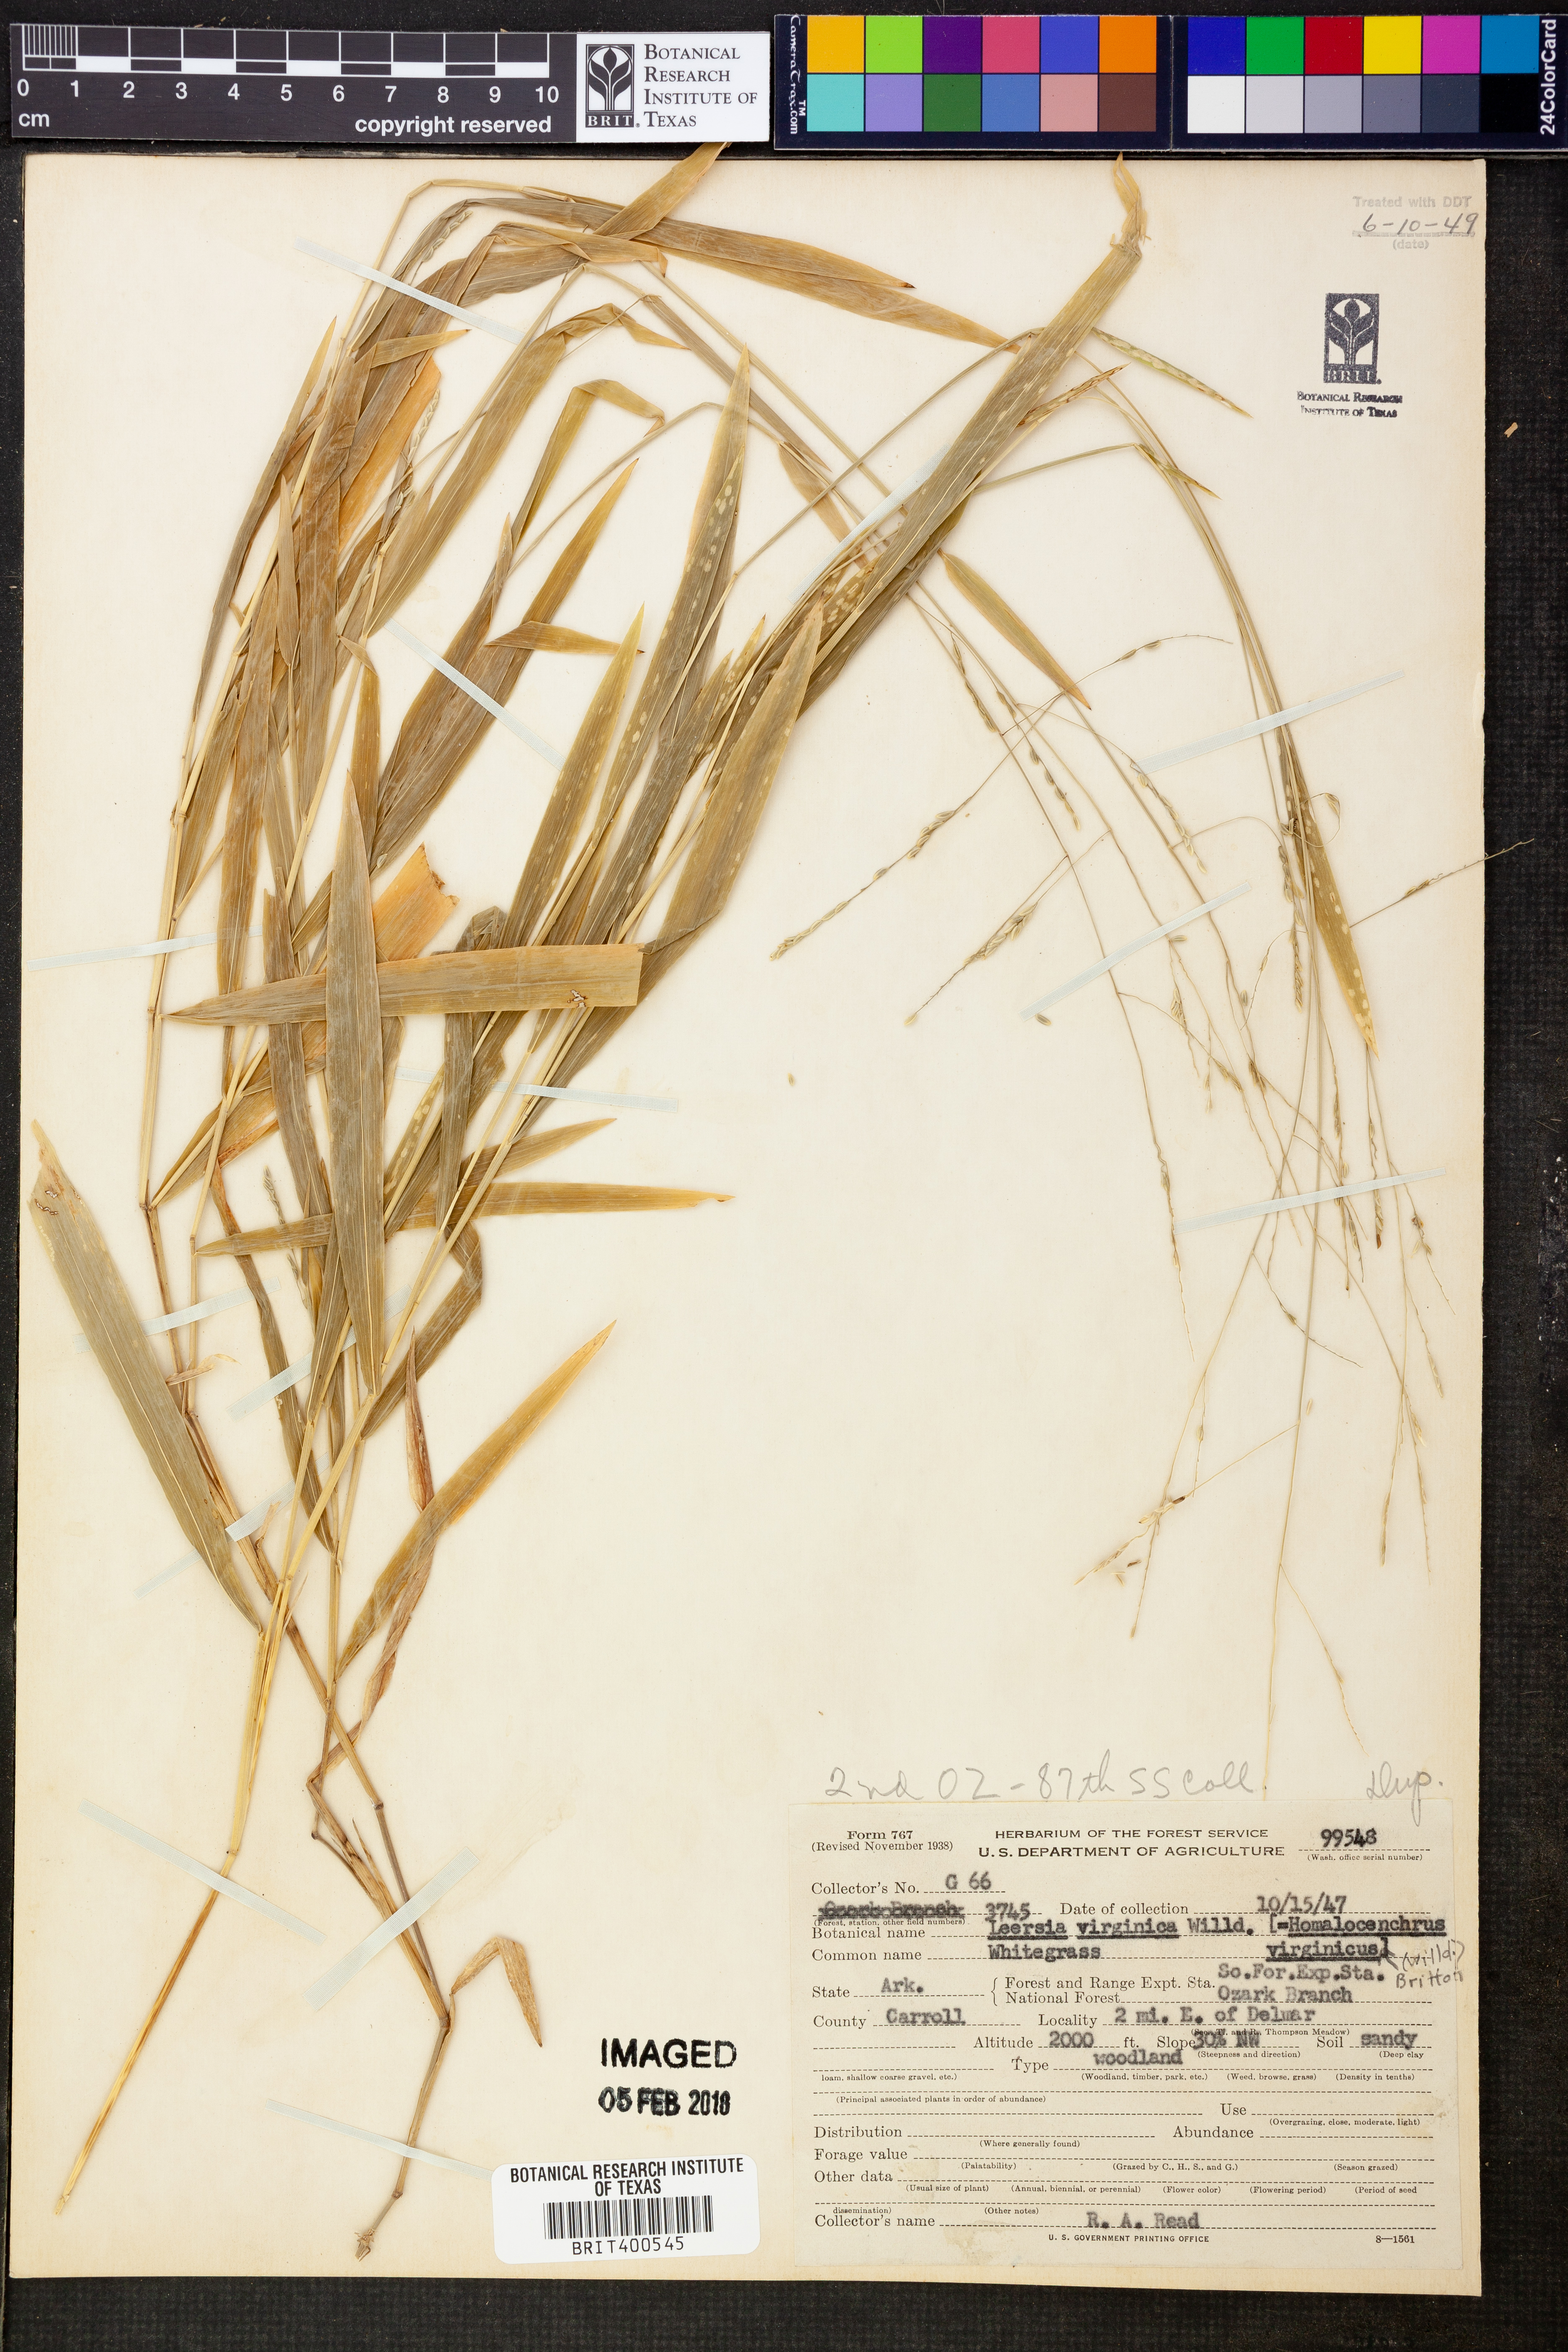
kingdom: Plantae
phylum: Tracheophyta
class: Liliopsida
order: Poales
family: Poaceae
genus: Leersia
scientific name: Leersia virginica
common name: White cutgrass
